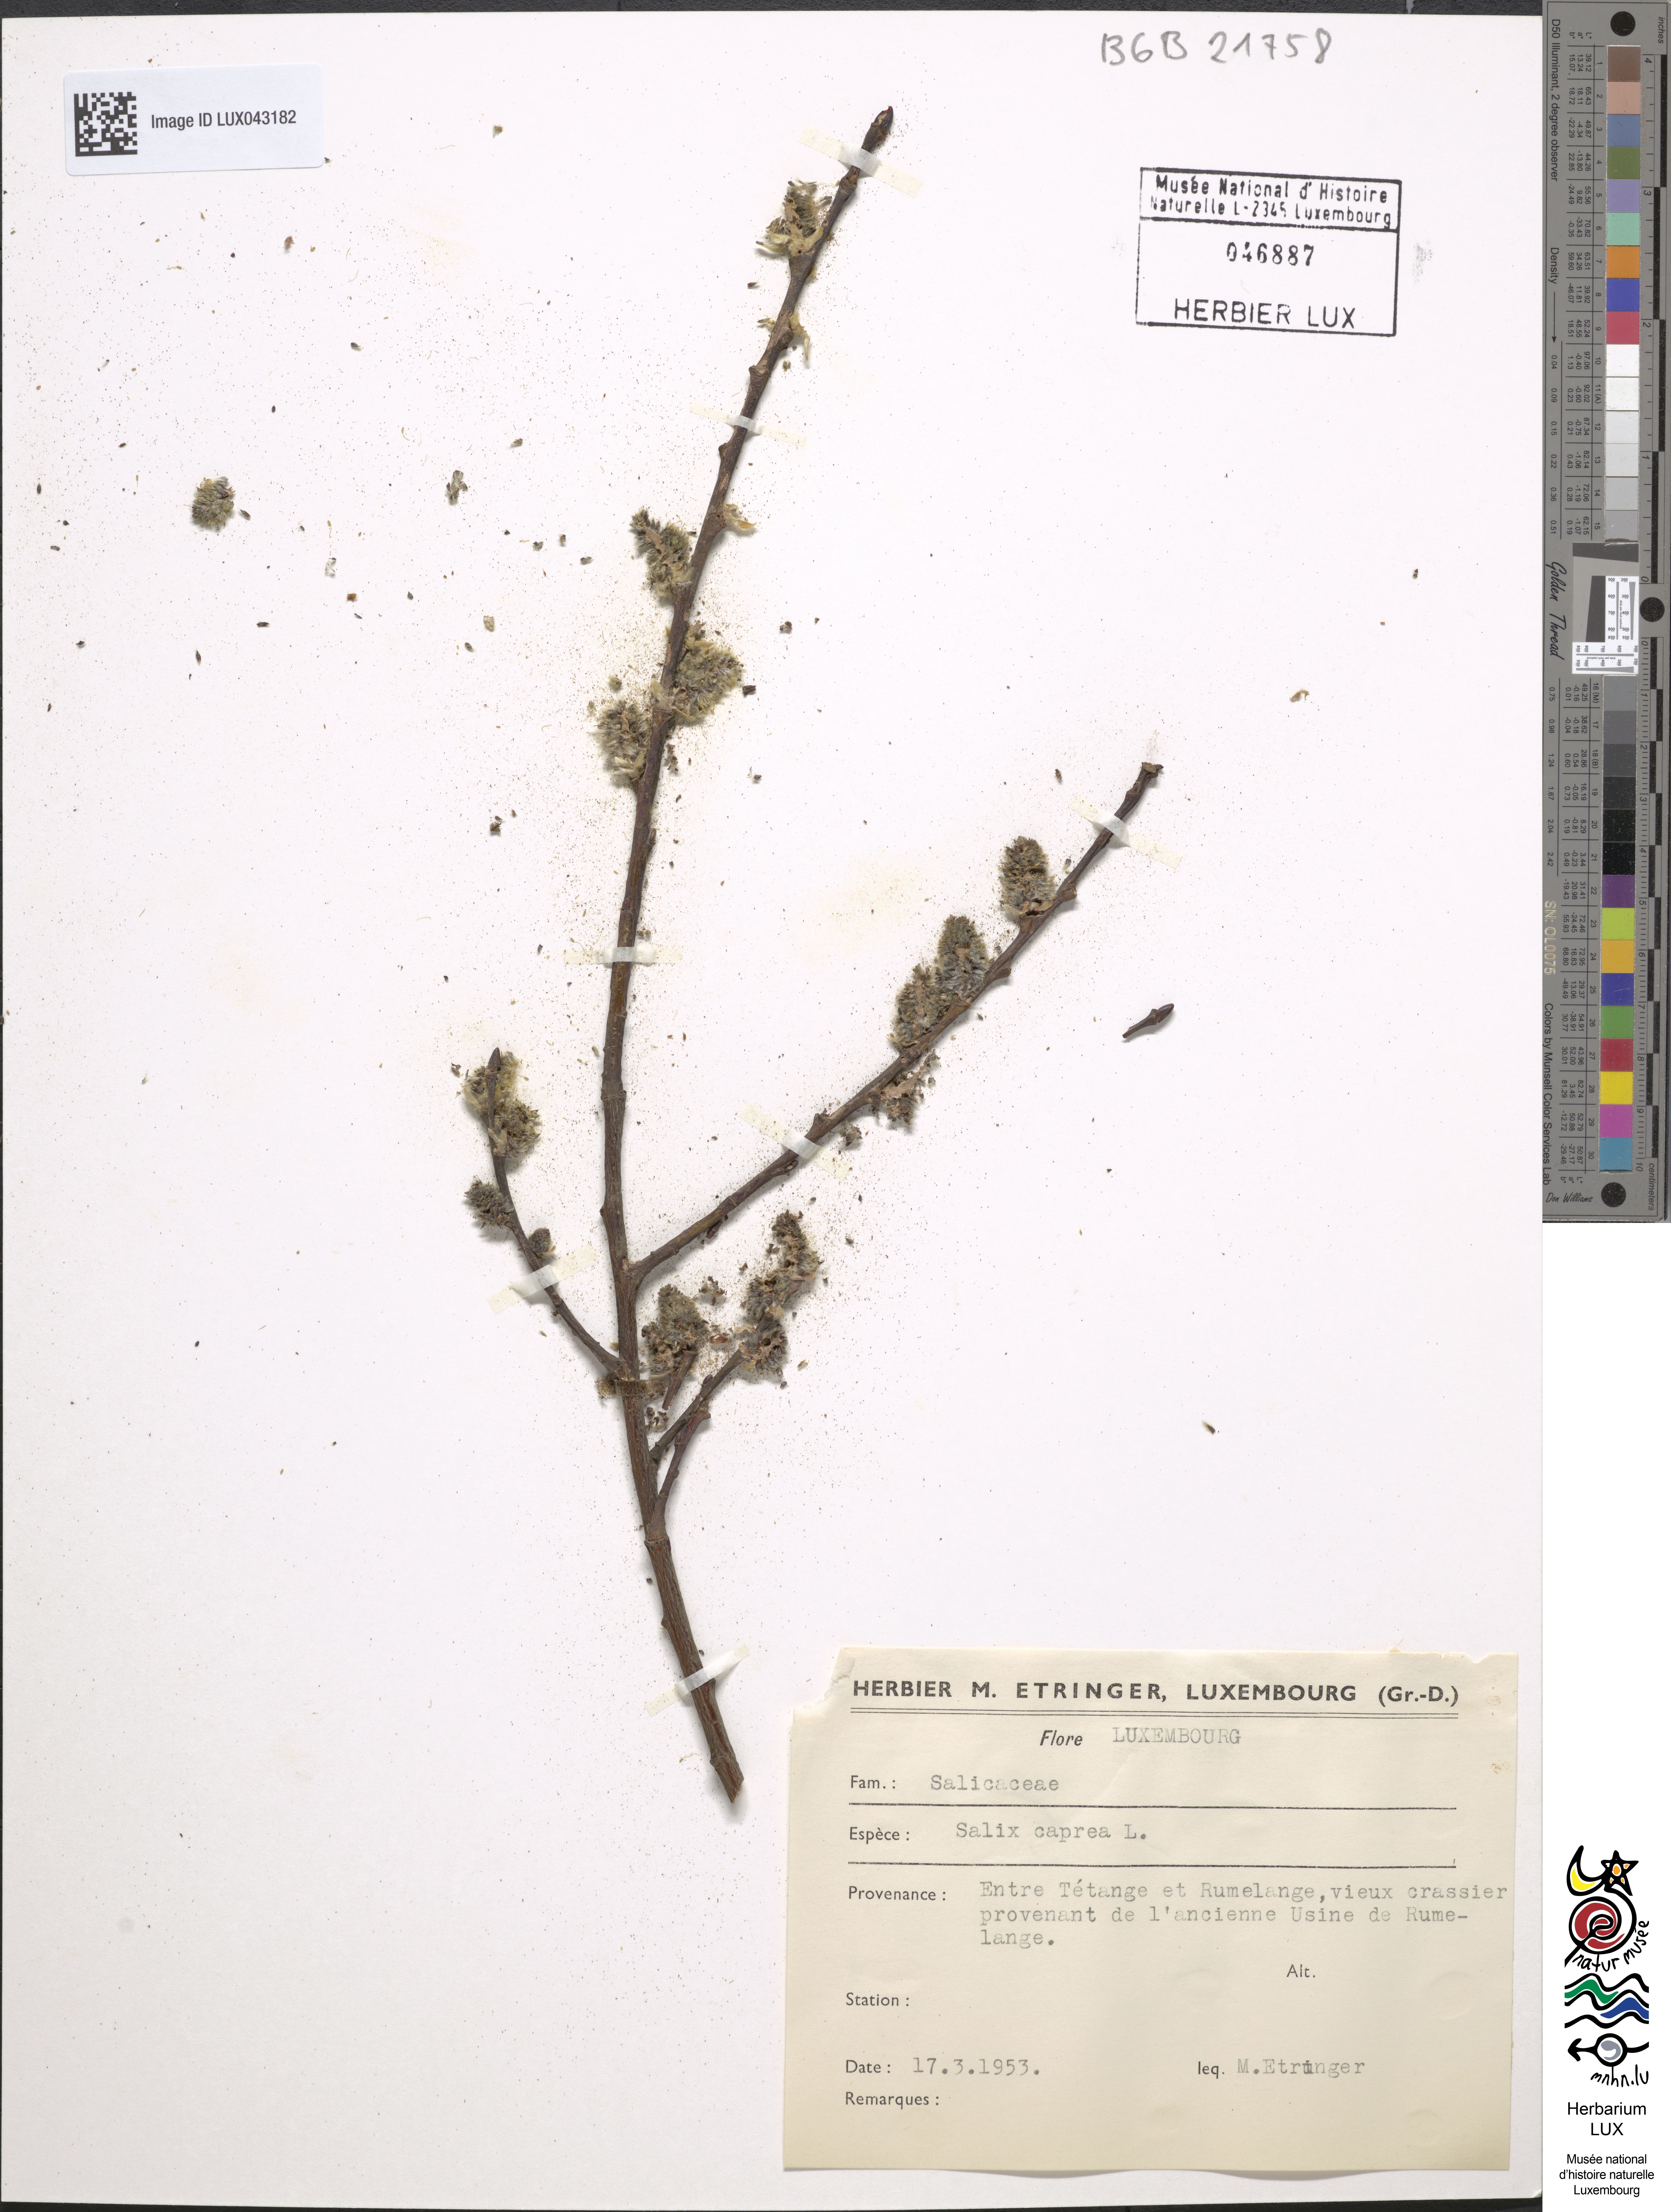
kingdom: Plantae
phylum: Tracheophyta
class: Magnoliopsida
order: Malpighiales
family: Salicaceae
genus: Salix
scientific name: Salix caprea
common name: Goat willow
